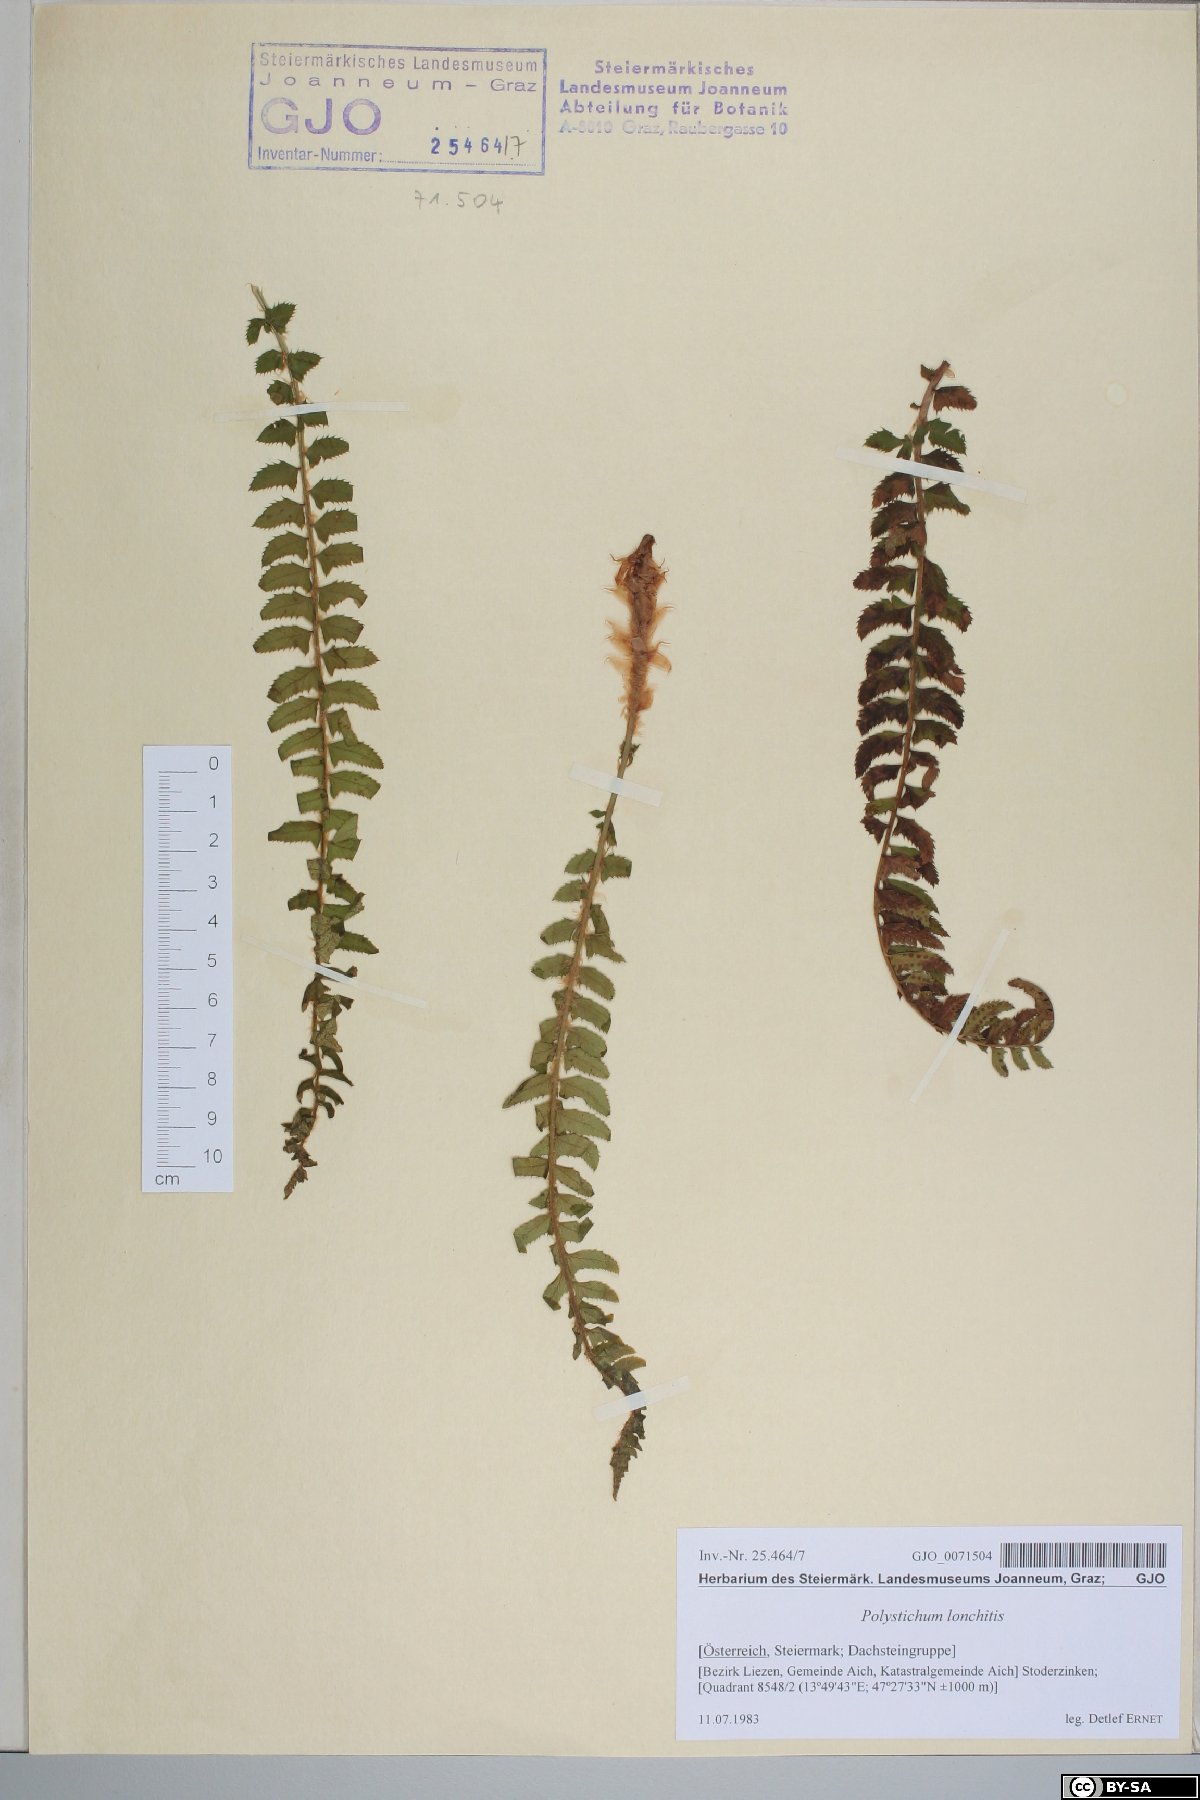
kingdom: Plantae
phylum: Tracheophyta
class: Polypodiopsida
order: Polypodiales
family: Dryopteridaceae
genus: Polystichum
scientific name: Polystichum lonchitis
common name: Holly fern
